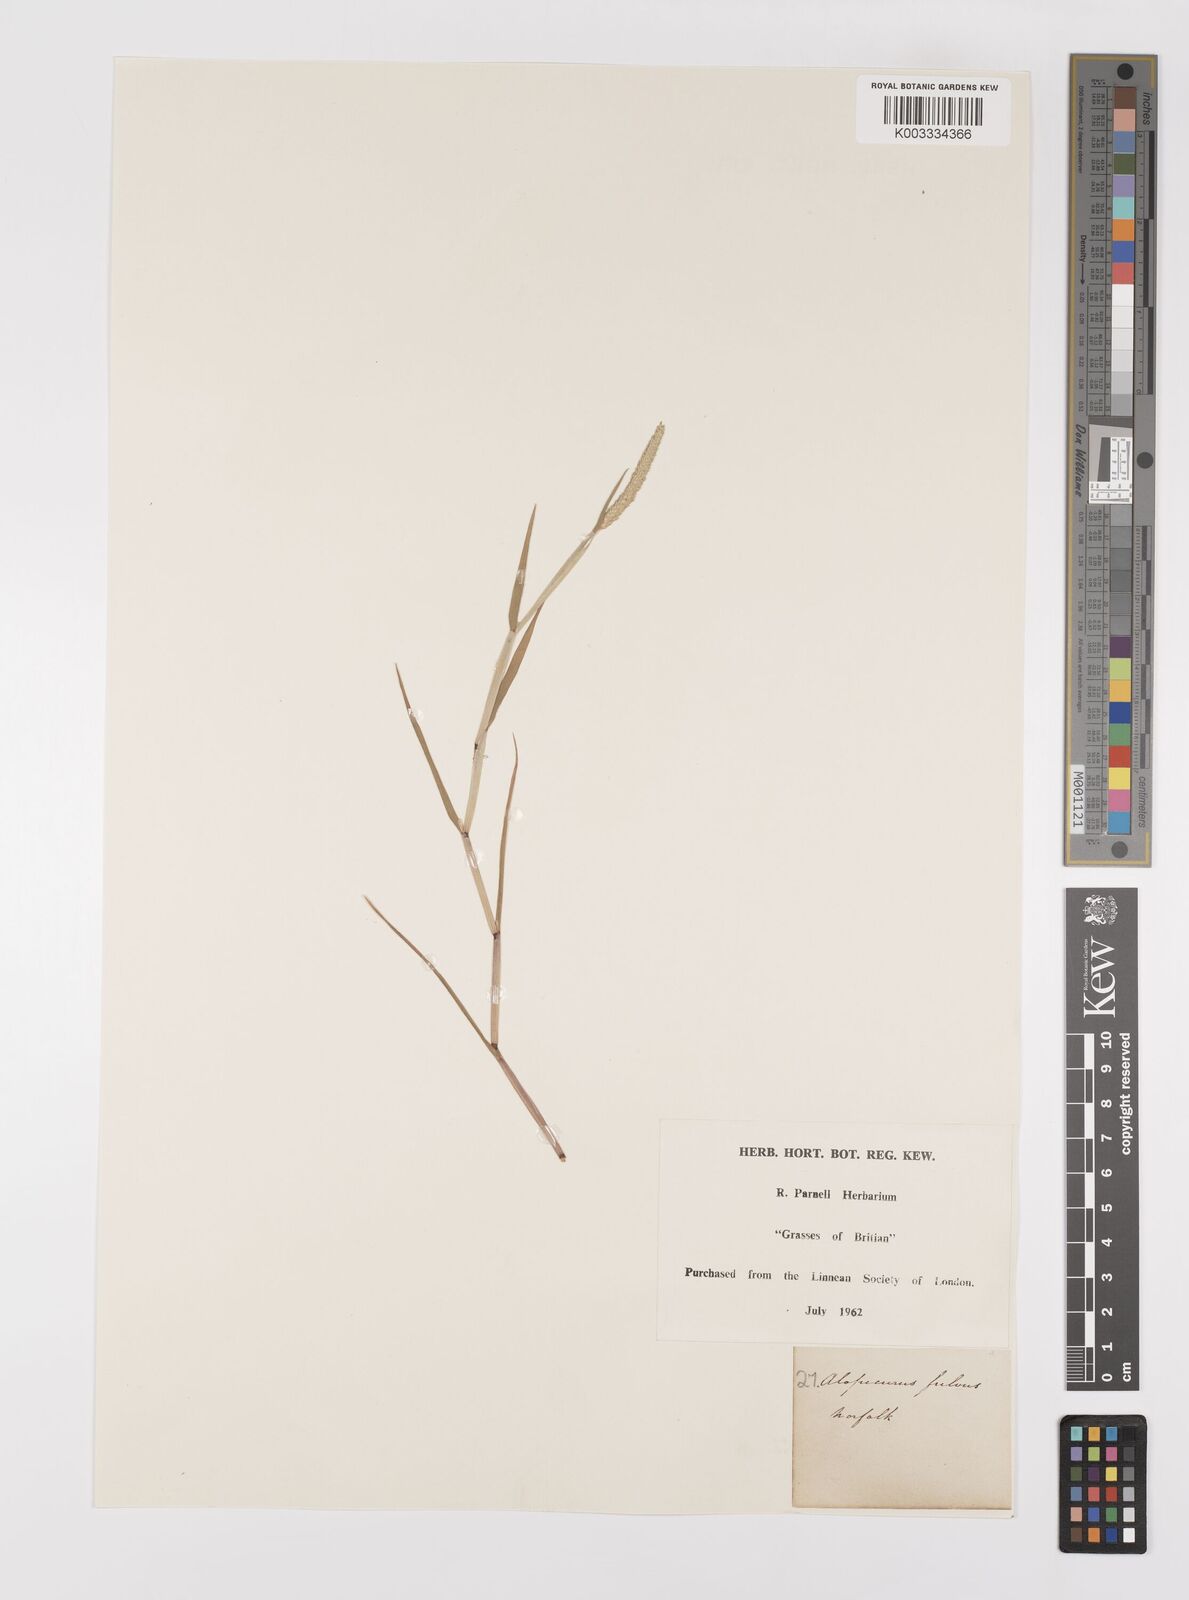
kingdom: Plantae
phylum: Tracheophyta
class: Liliopsida
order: Poales
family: Poaceae
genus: Alopecurus
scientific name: Alopecurus aequalis
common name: Orange foxtail
